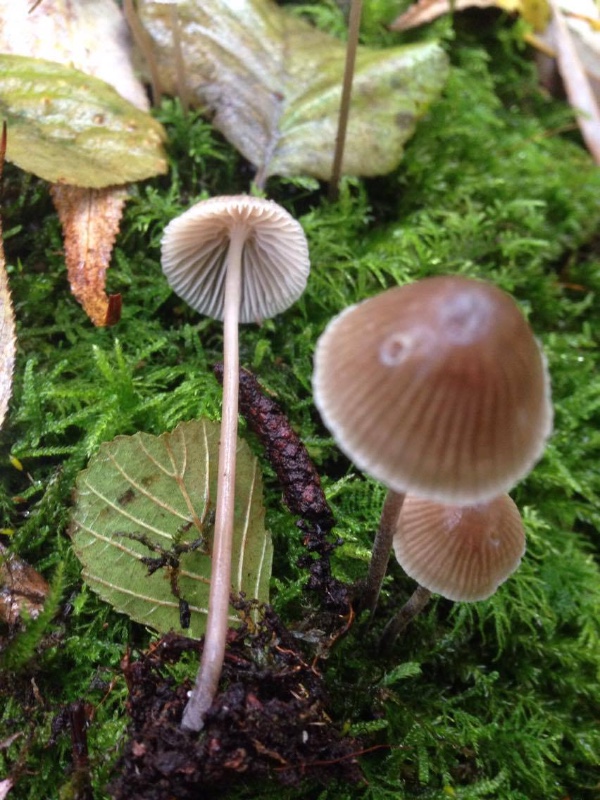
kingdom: Fungi
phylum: Basidiomycota
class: Agaricomycetes
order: Agaricales
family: Mycenaceae
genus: Mycena
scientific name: Mycena leptocephala
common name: klor-huesvamp
